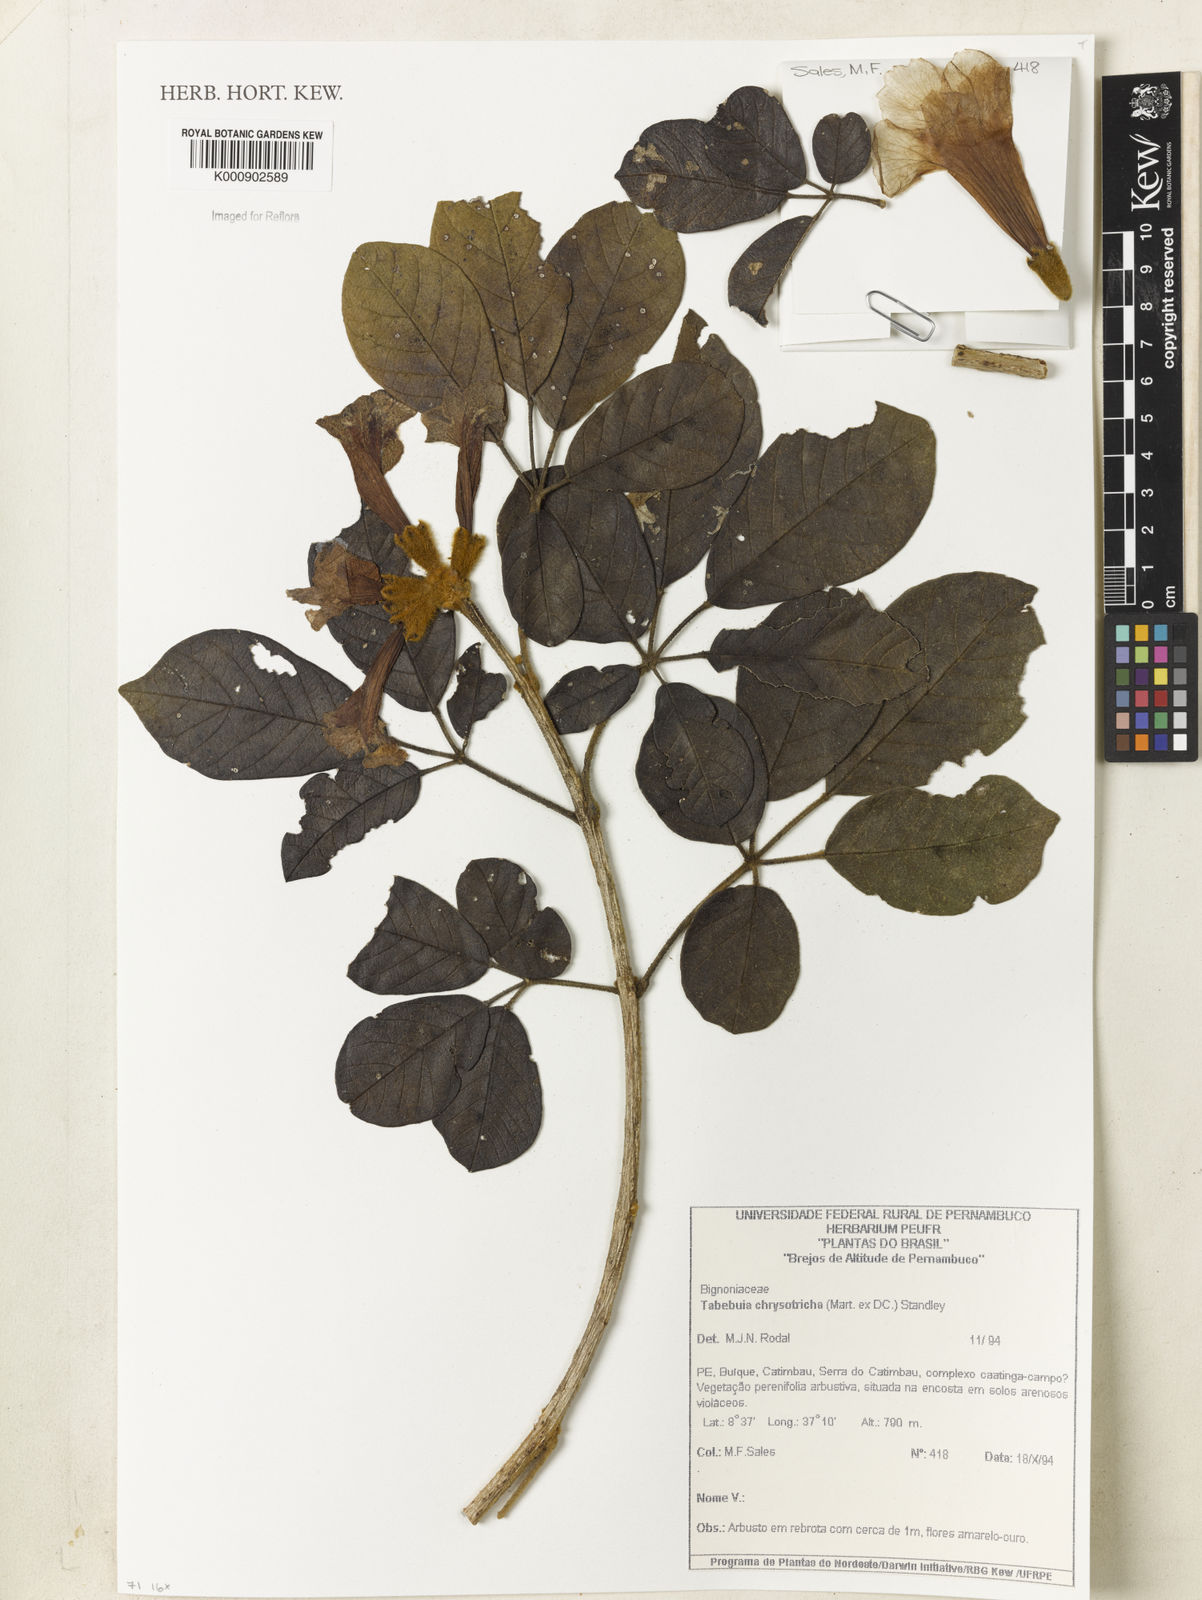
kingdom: Plantae
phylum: Tracheophyta
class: Magnoliopsida
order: Lamiales
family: Bignoniaceae
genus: Handroanthus
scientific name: Handroanthus chrysotrichus
